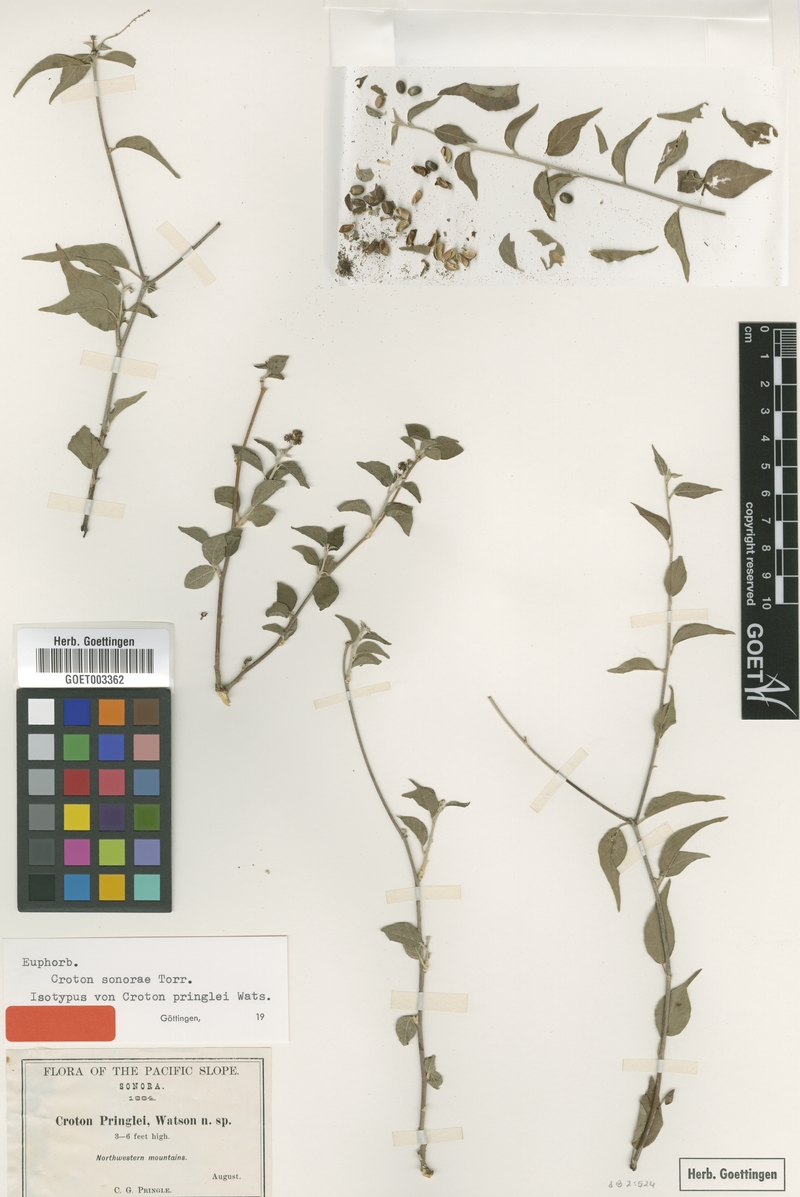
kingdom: Plantae
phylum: Tracheophyta
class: Magnoliopsida
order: Malpighiales
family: Euphorbiaceae
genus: Croton
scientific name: Croton sonorae
